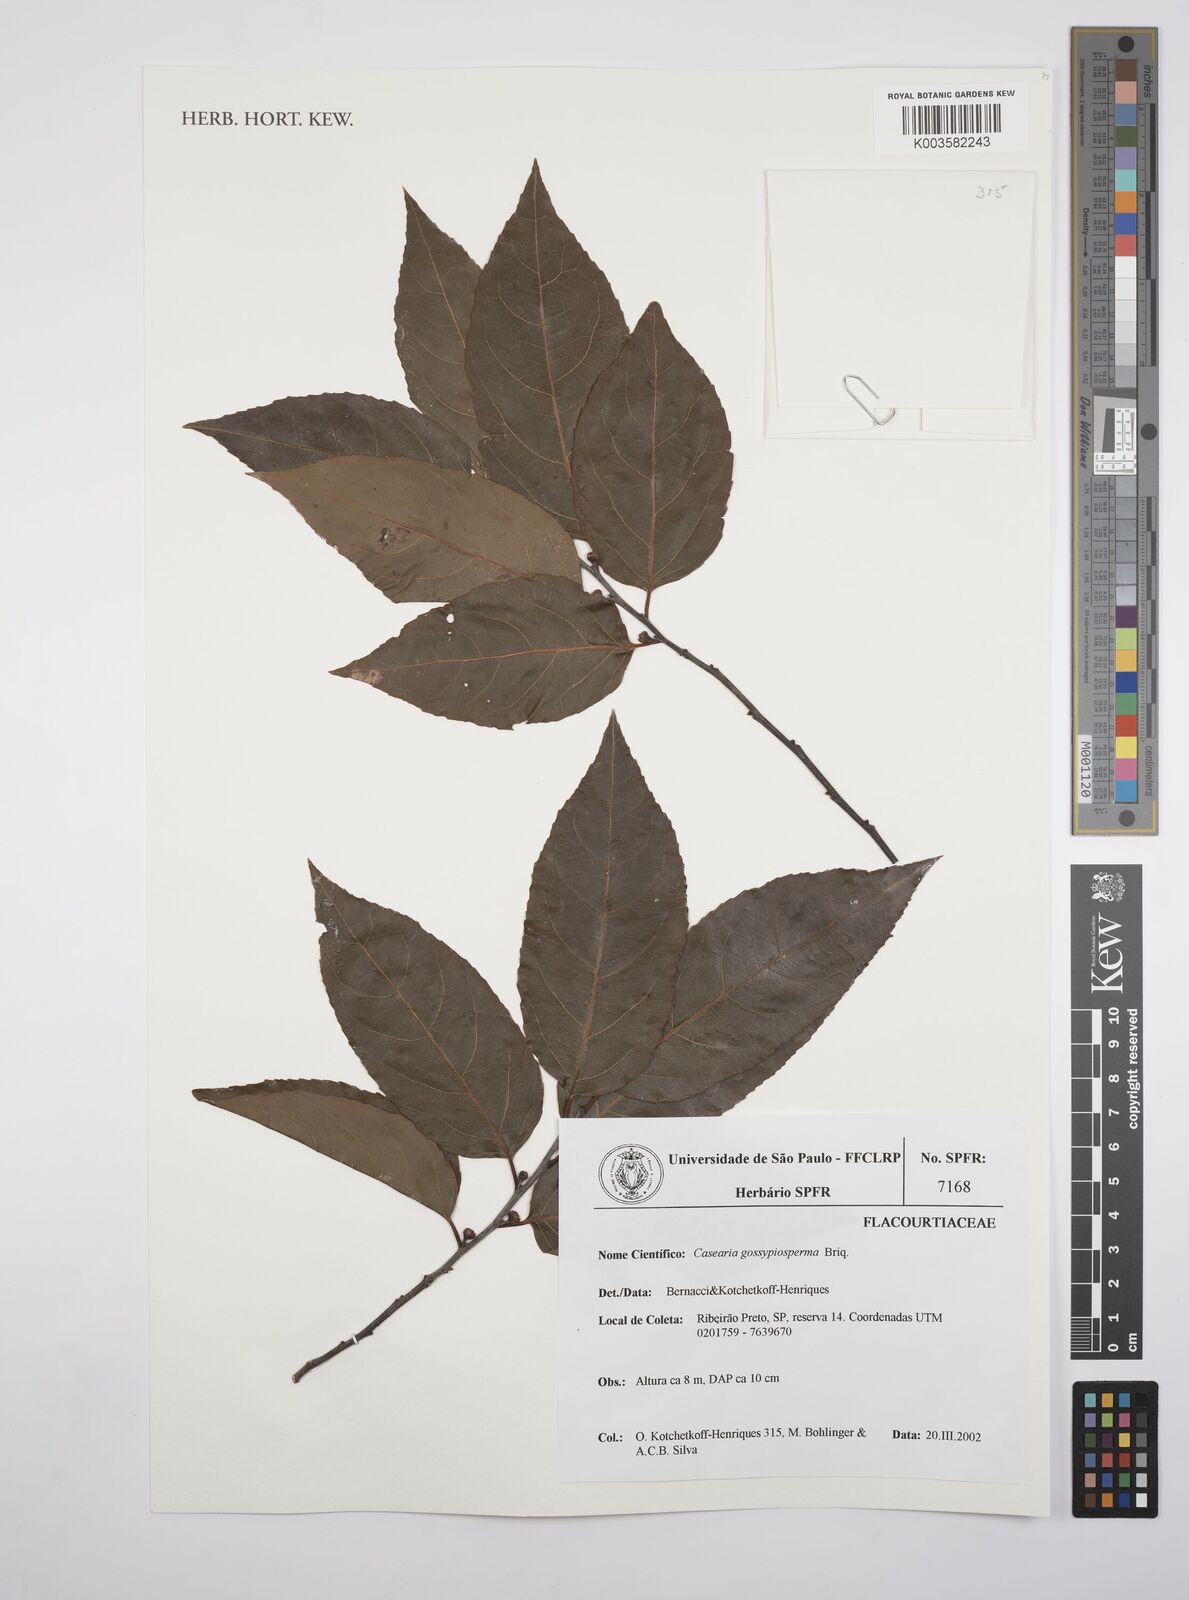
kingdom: Plantae
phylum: Tracheophyta
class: Magnoliopsida
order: Malpighiales
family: Salicaceae
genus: Casearia
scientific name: Casearia gossypiosperma
